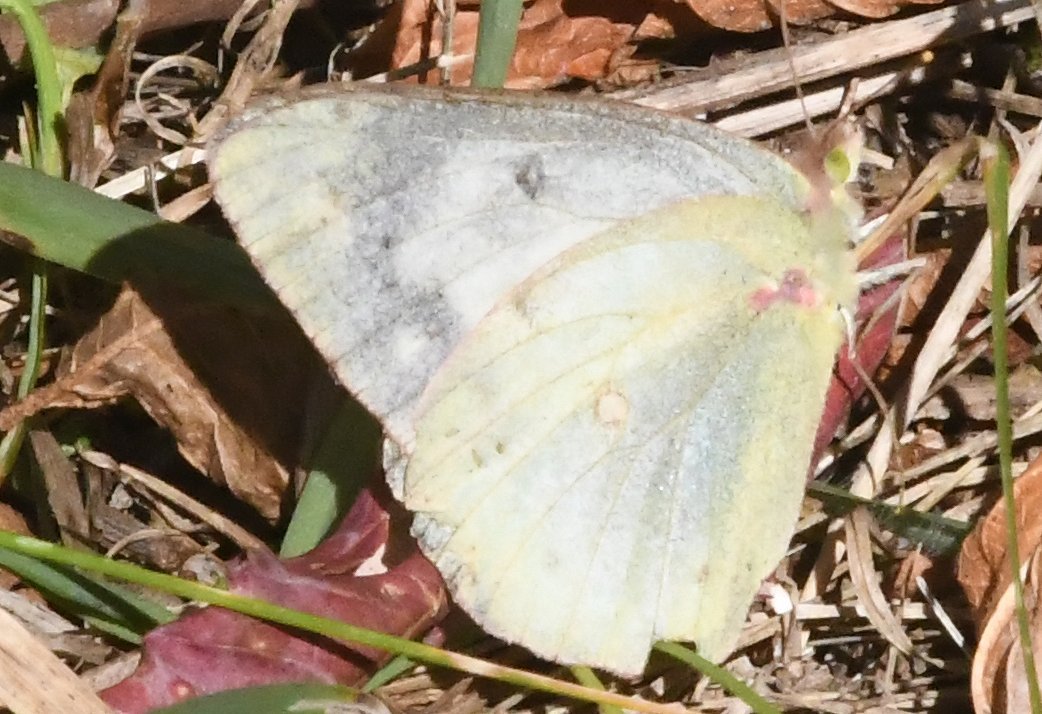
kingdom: Animalia
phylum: Arthropoda
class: Insecta
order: Lepidoptera
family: Pieridae
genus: Colias
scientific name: Colias eurytheme
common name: Orange Sulphur
